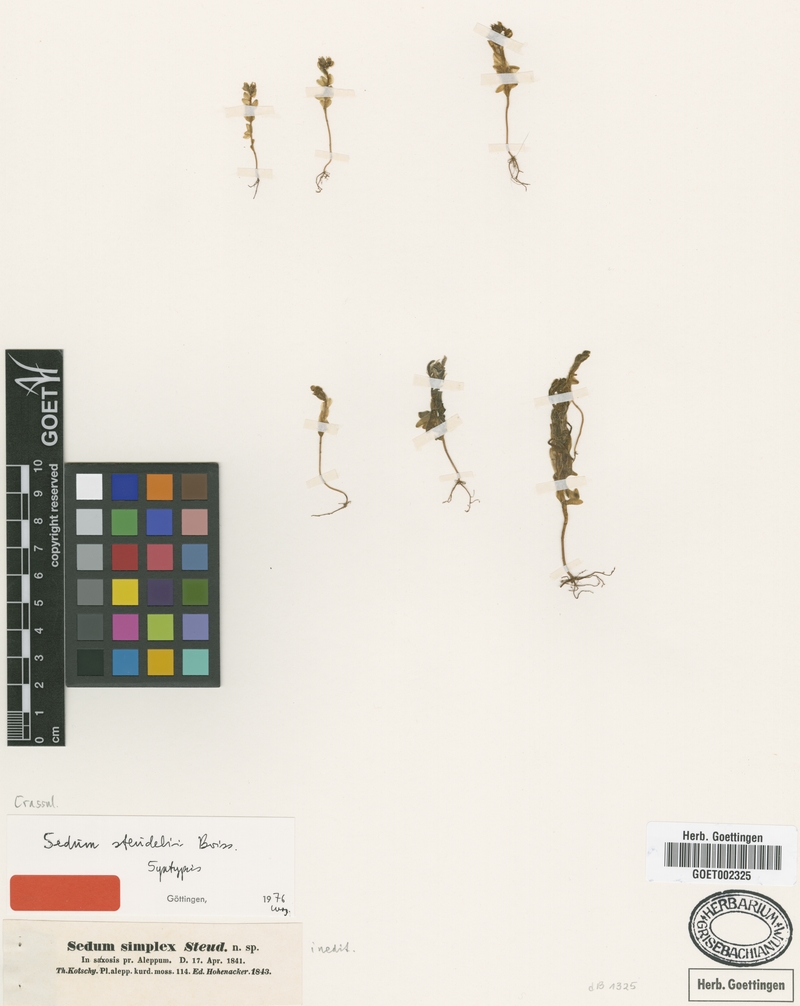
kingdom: Plantae
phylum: Tracheophyta
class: Magnoliopsida
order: Saxifragales
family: Crassulaceae
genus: Sedum
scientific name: Sedum rubens
